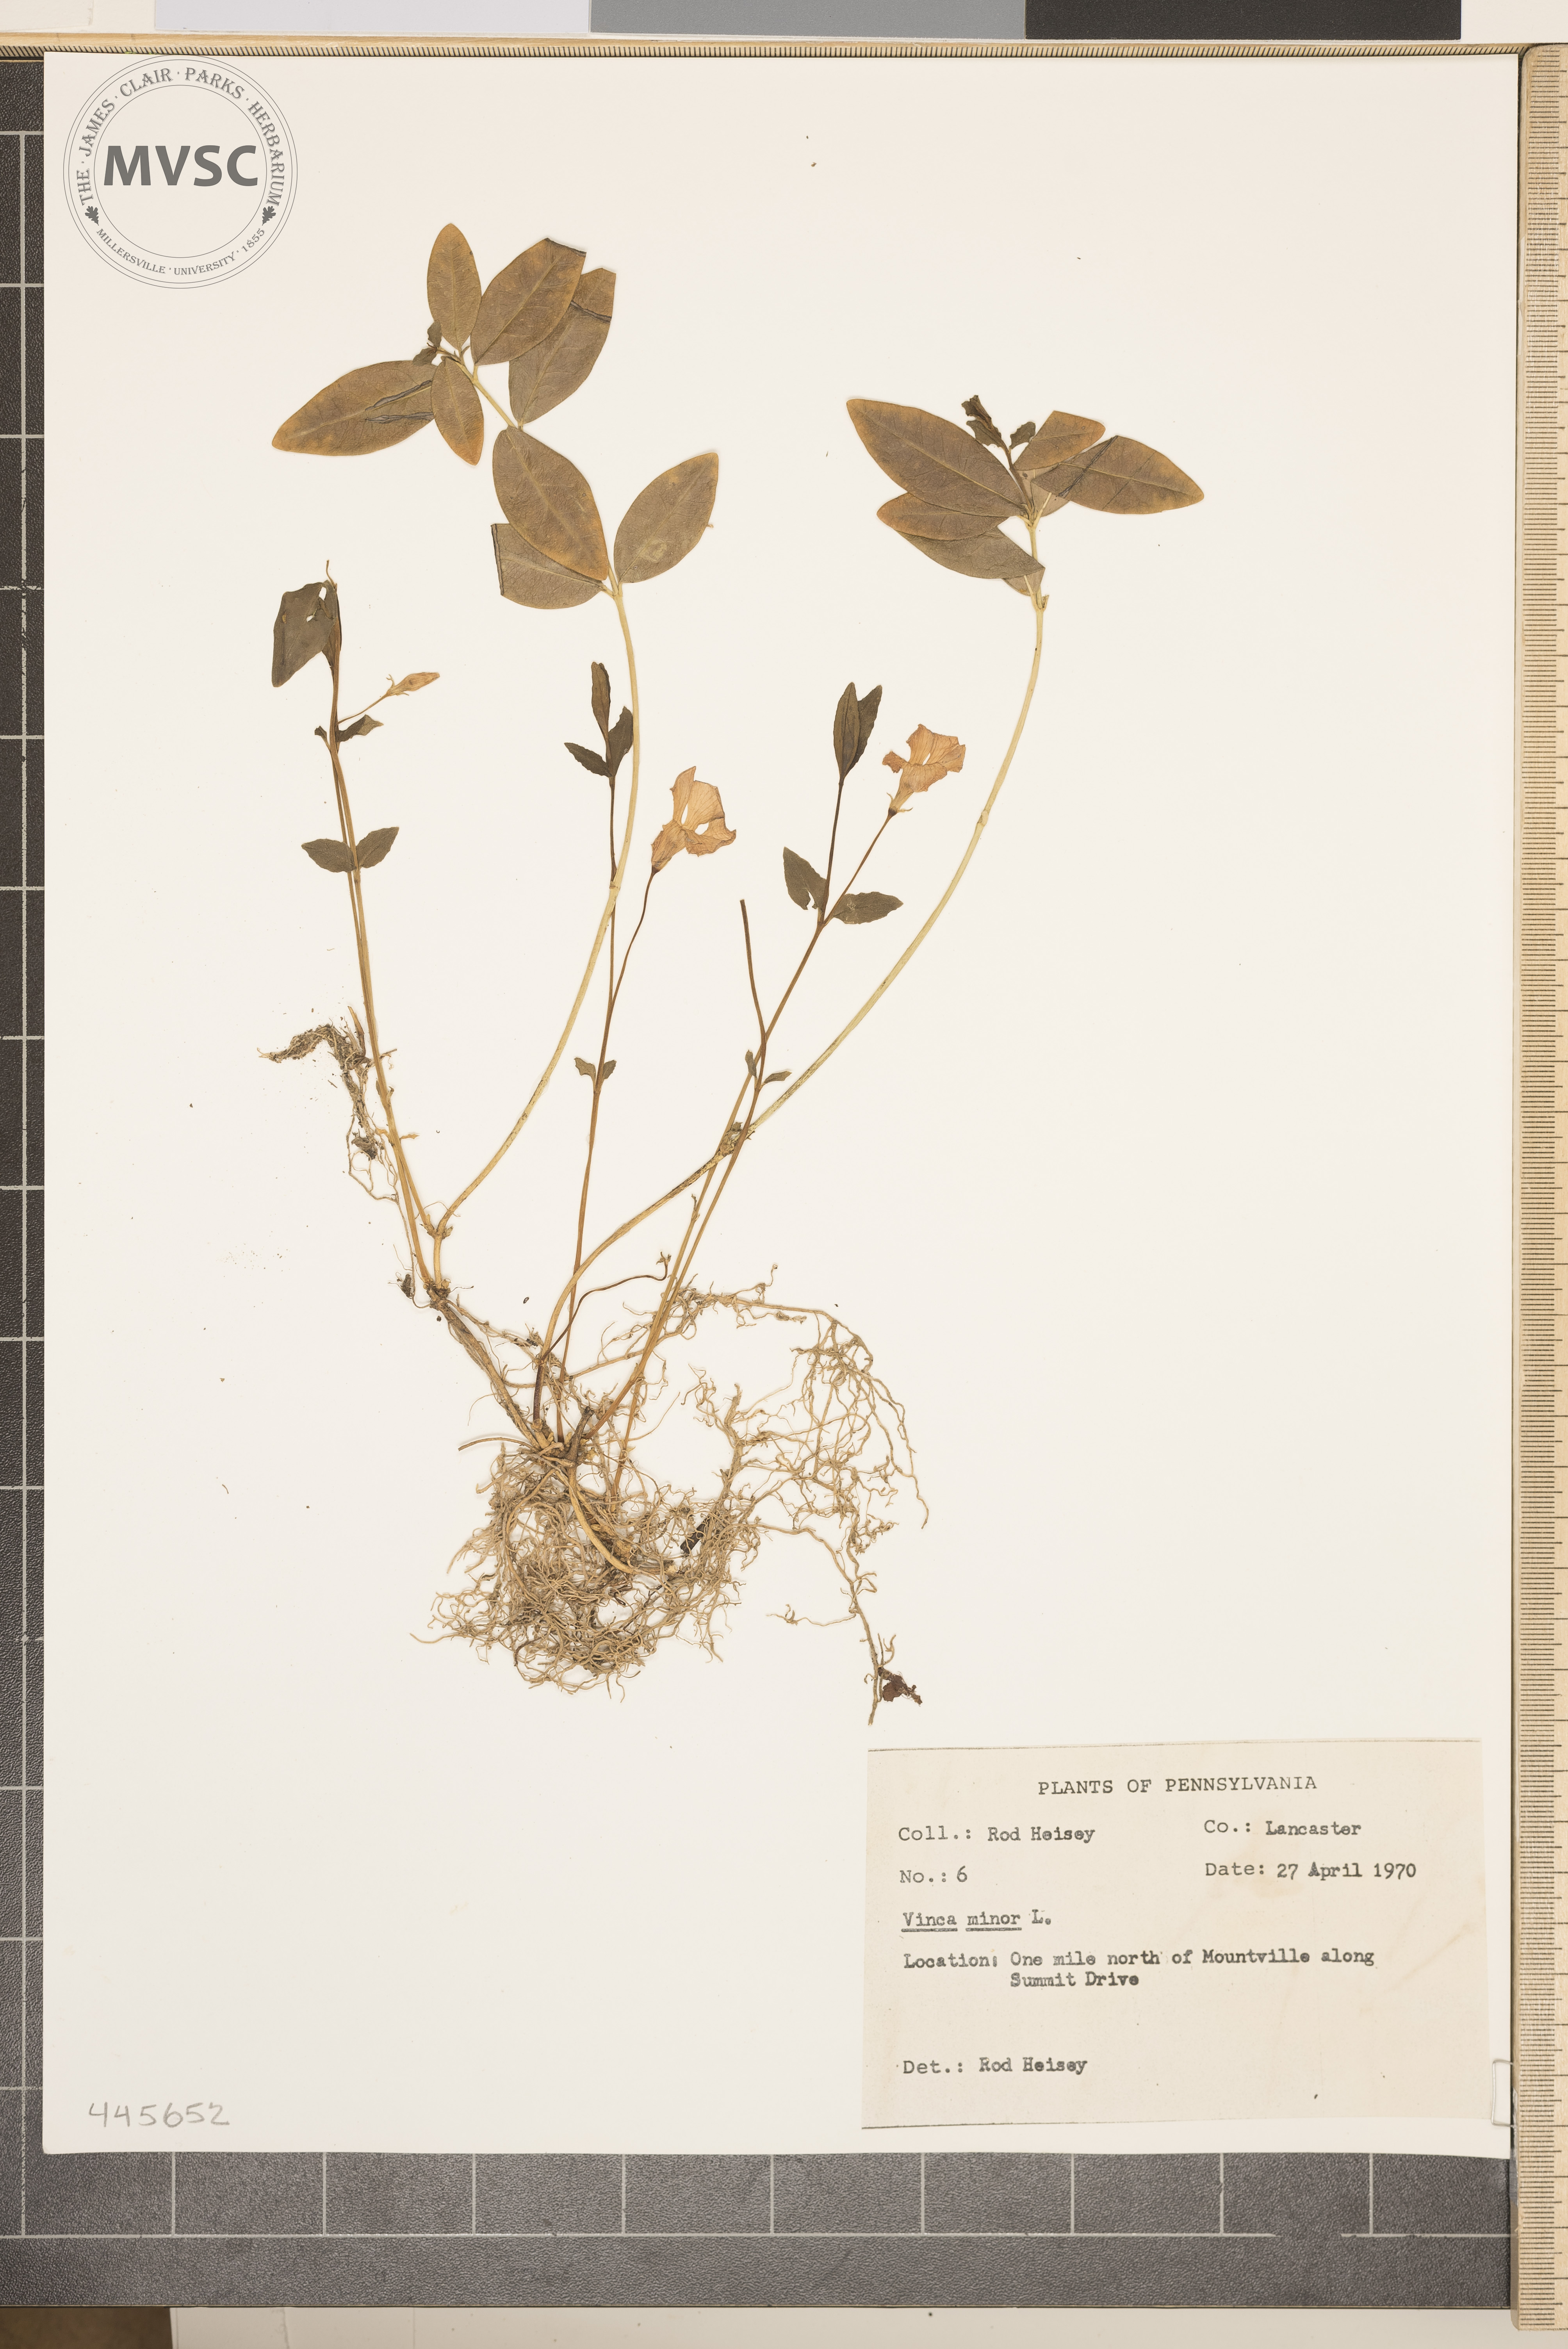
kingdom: Plantae
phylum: Tracheophyta
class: Magnoliopsida
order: Gentianales
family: Apocynaceae
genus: Vinca
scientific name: Vinca minor
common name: Lesser periwinkle
